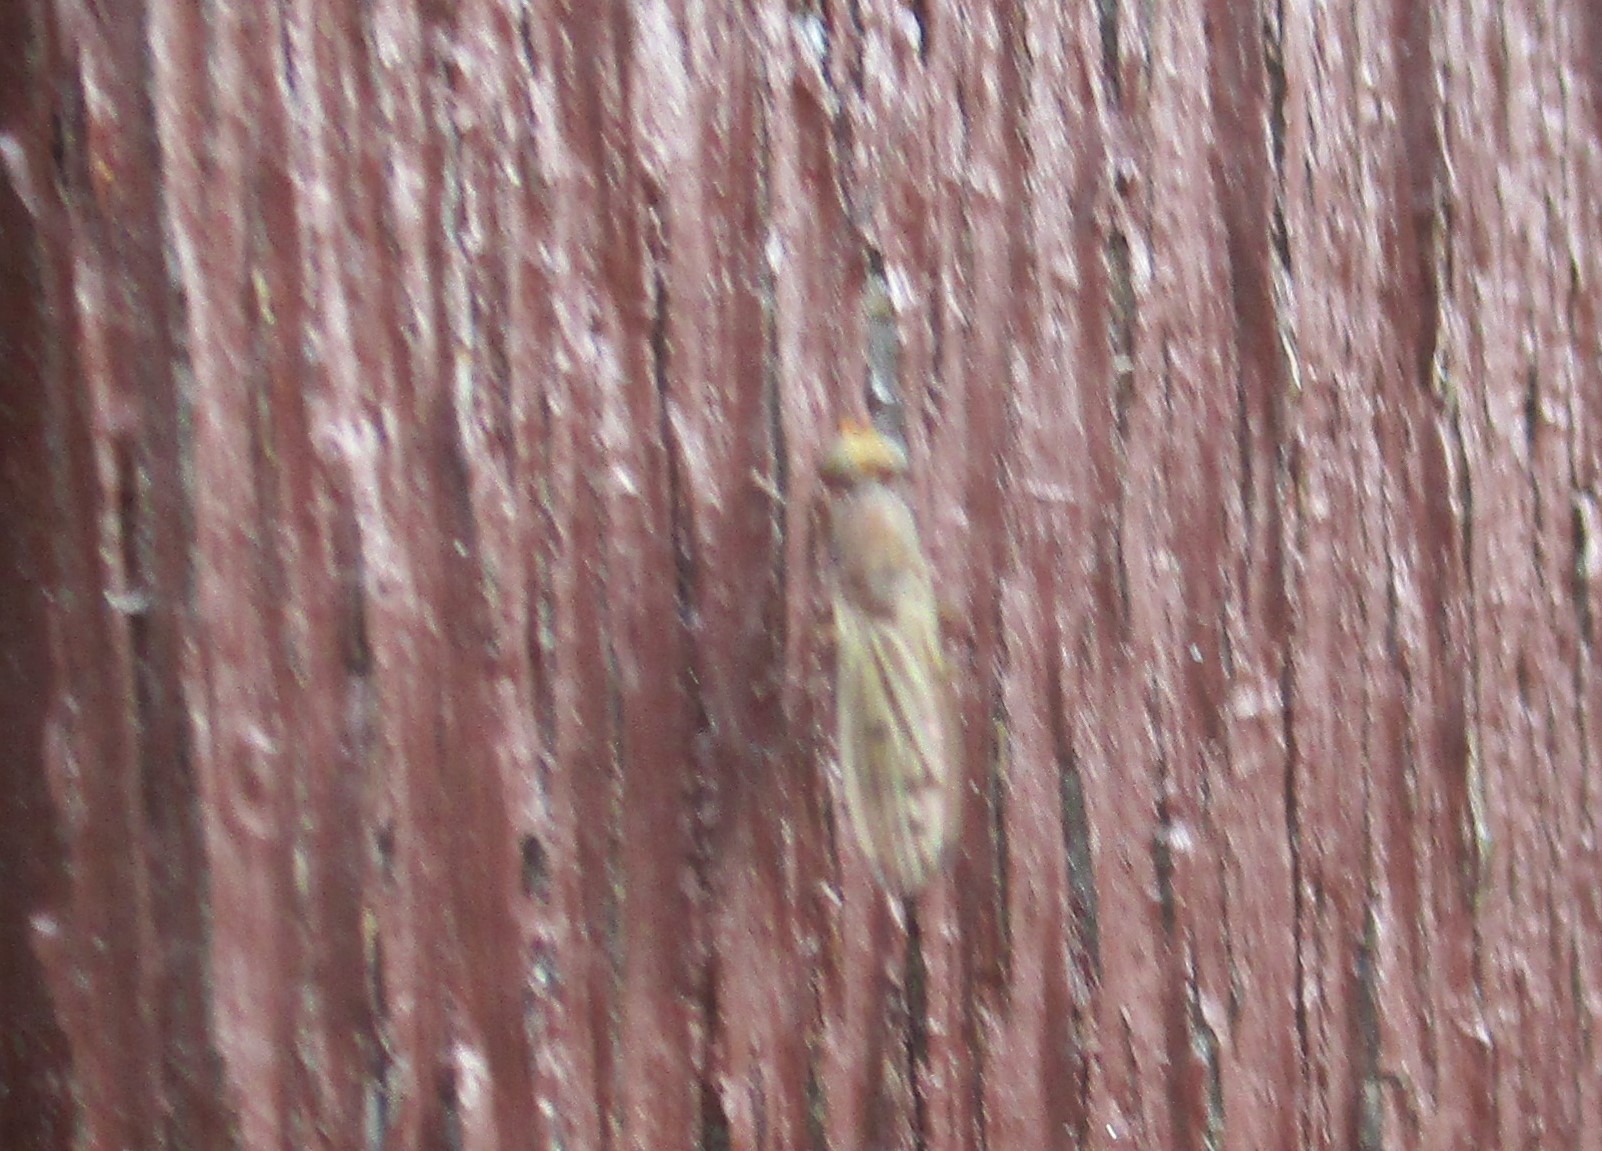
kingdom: Animalia
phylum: Arthropoda
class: Insecta
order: Diptera
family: Opomyzidae
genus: Opomyza
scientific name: Opomyza florum
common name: Gul græsflue
